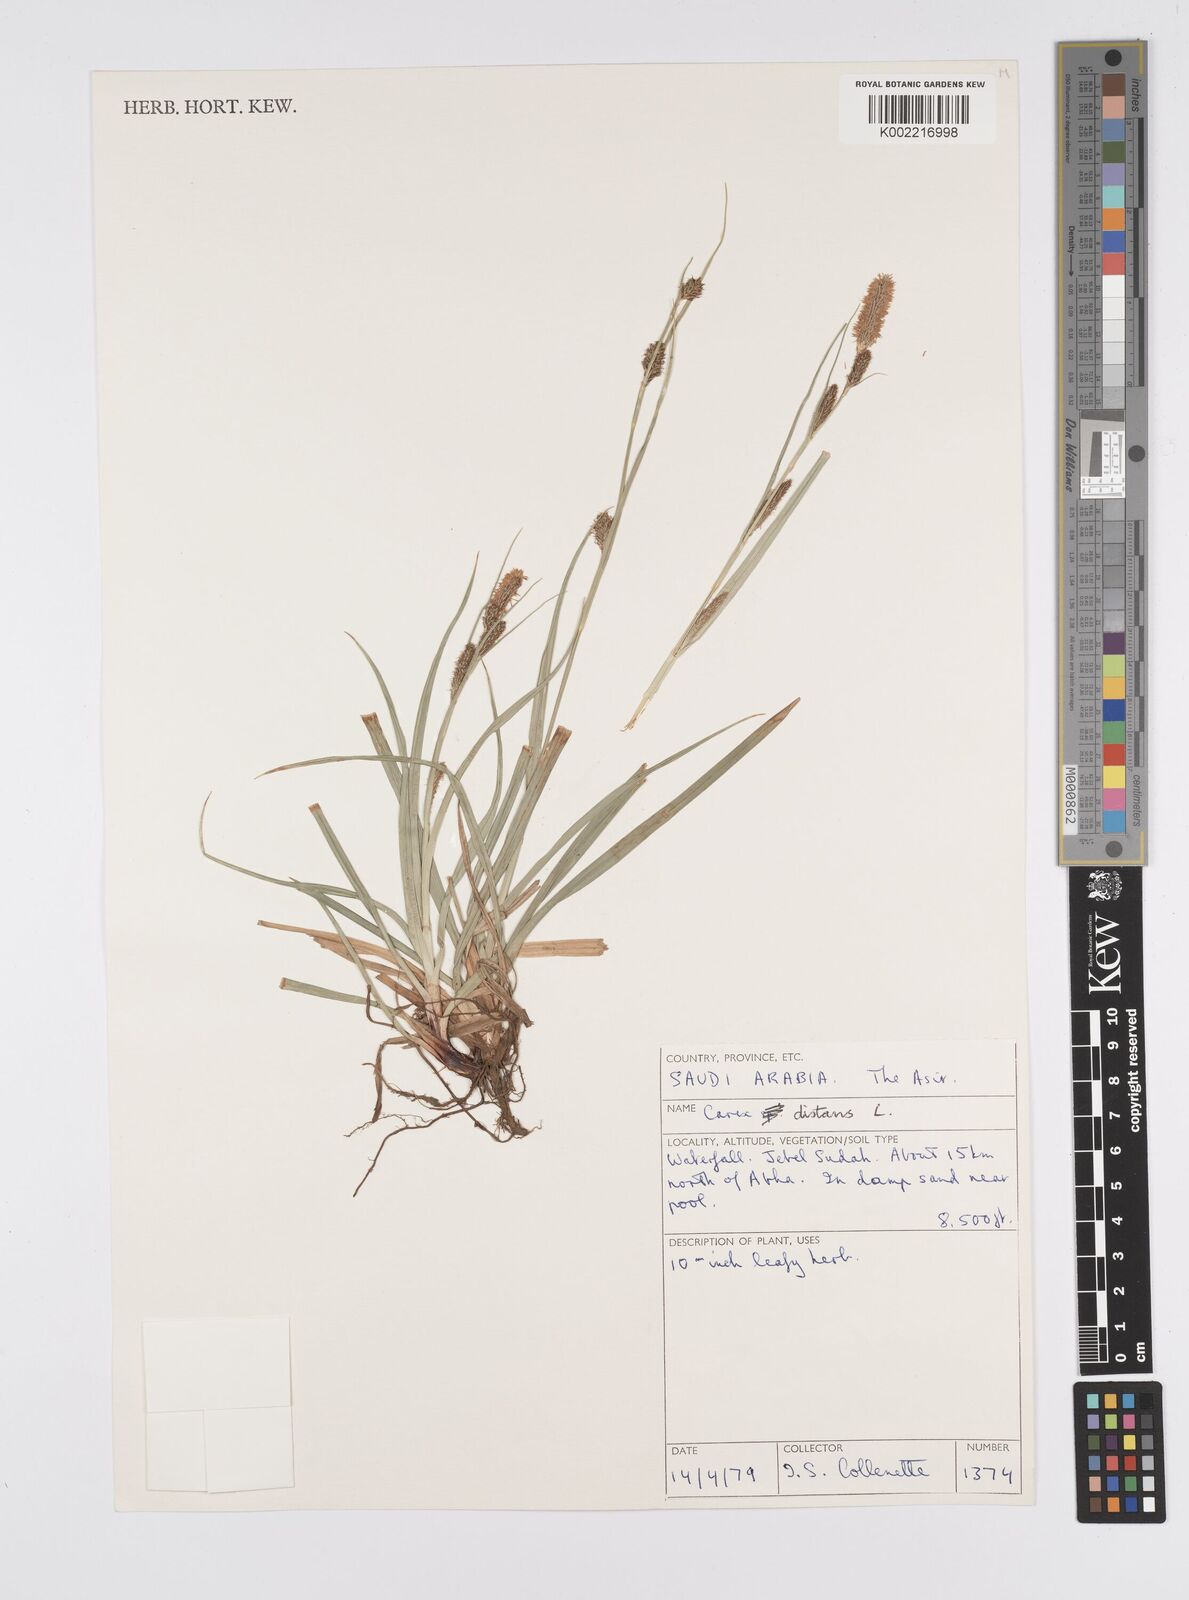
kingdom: Plantae
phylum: Tracheophyta
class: Liliopsida
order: Poales
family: Cyperaceae
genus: Carex
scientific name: Carex distans
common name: Distant sedge
